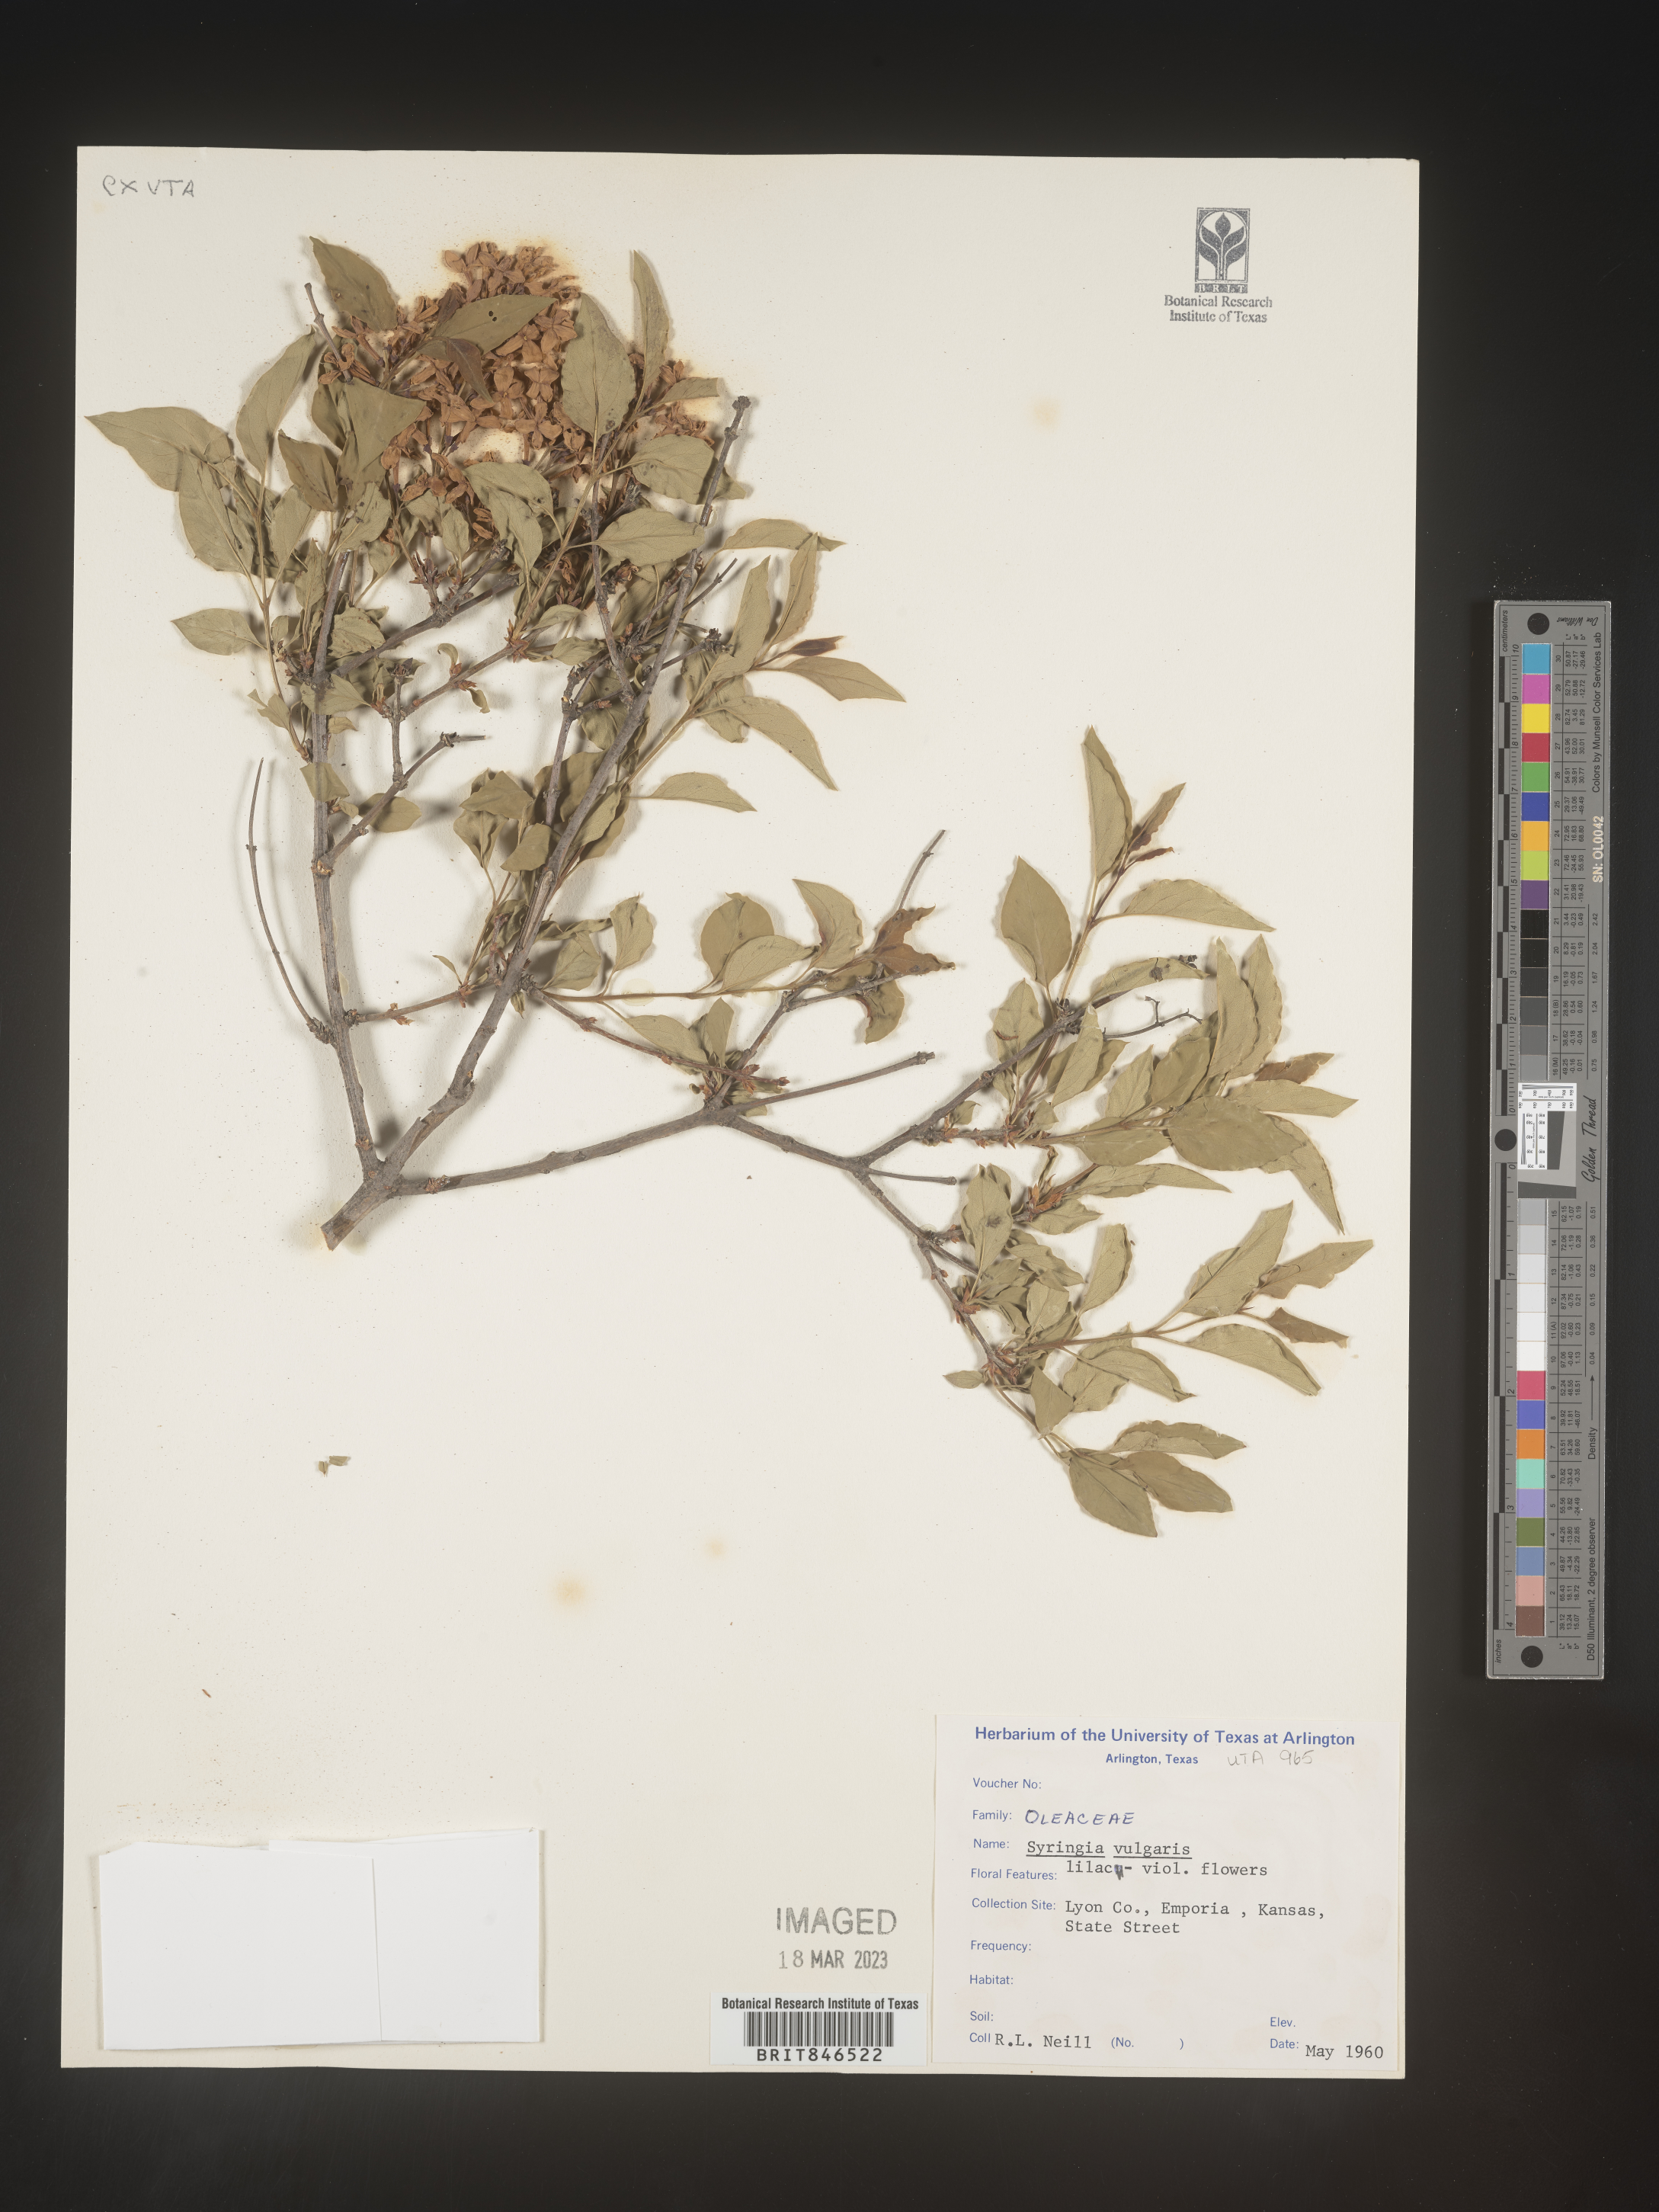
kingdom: Plantae
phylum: Tracheophyta
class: Magnoliopsida
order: Lamiales
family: Oleaceae
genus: Syringa
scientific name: Syringa
